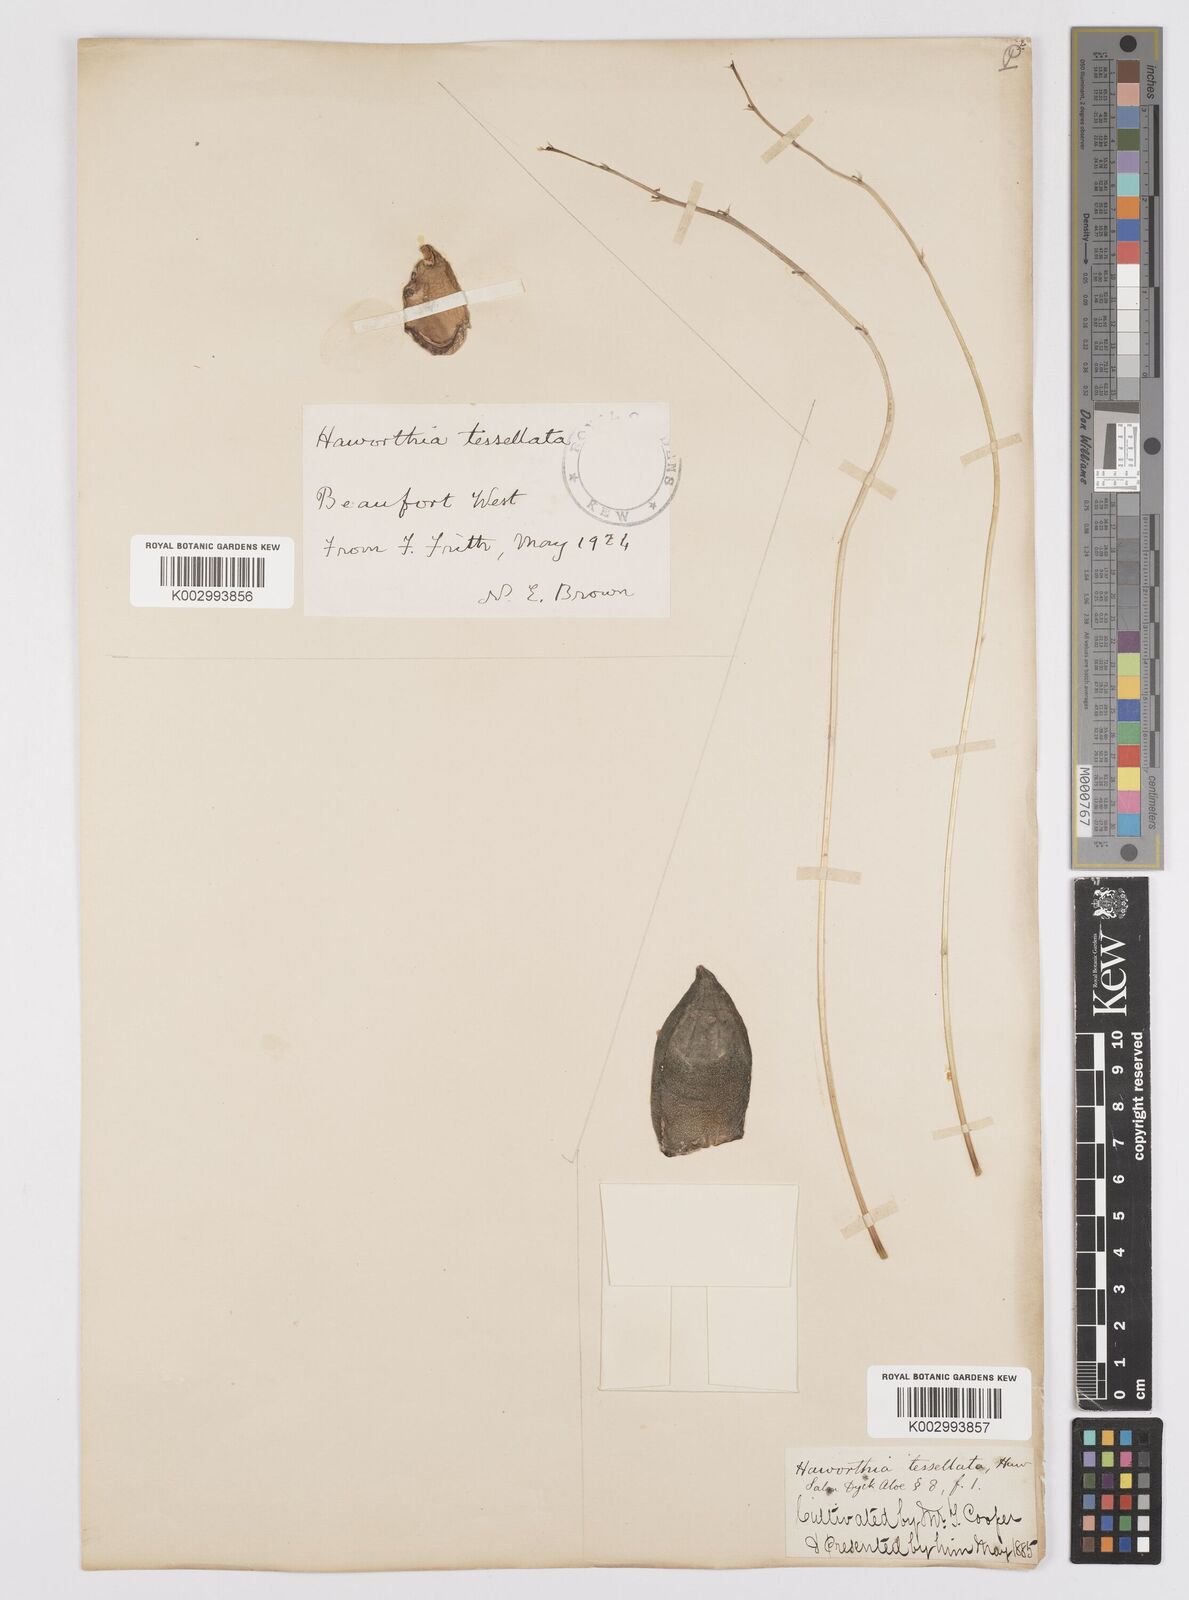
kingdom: Plantae
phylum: Tracheophyta
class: Liliopsida
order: Asparagales
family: Asphodelaceae
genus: Haworthiopsis
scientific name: Haworthiopsis tessellata
